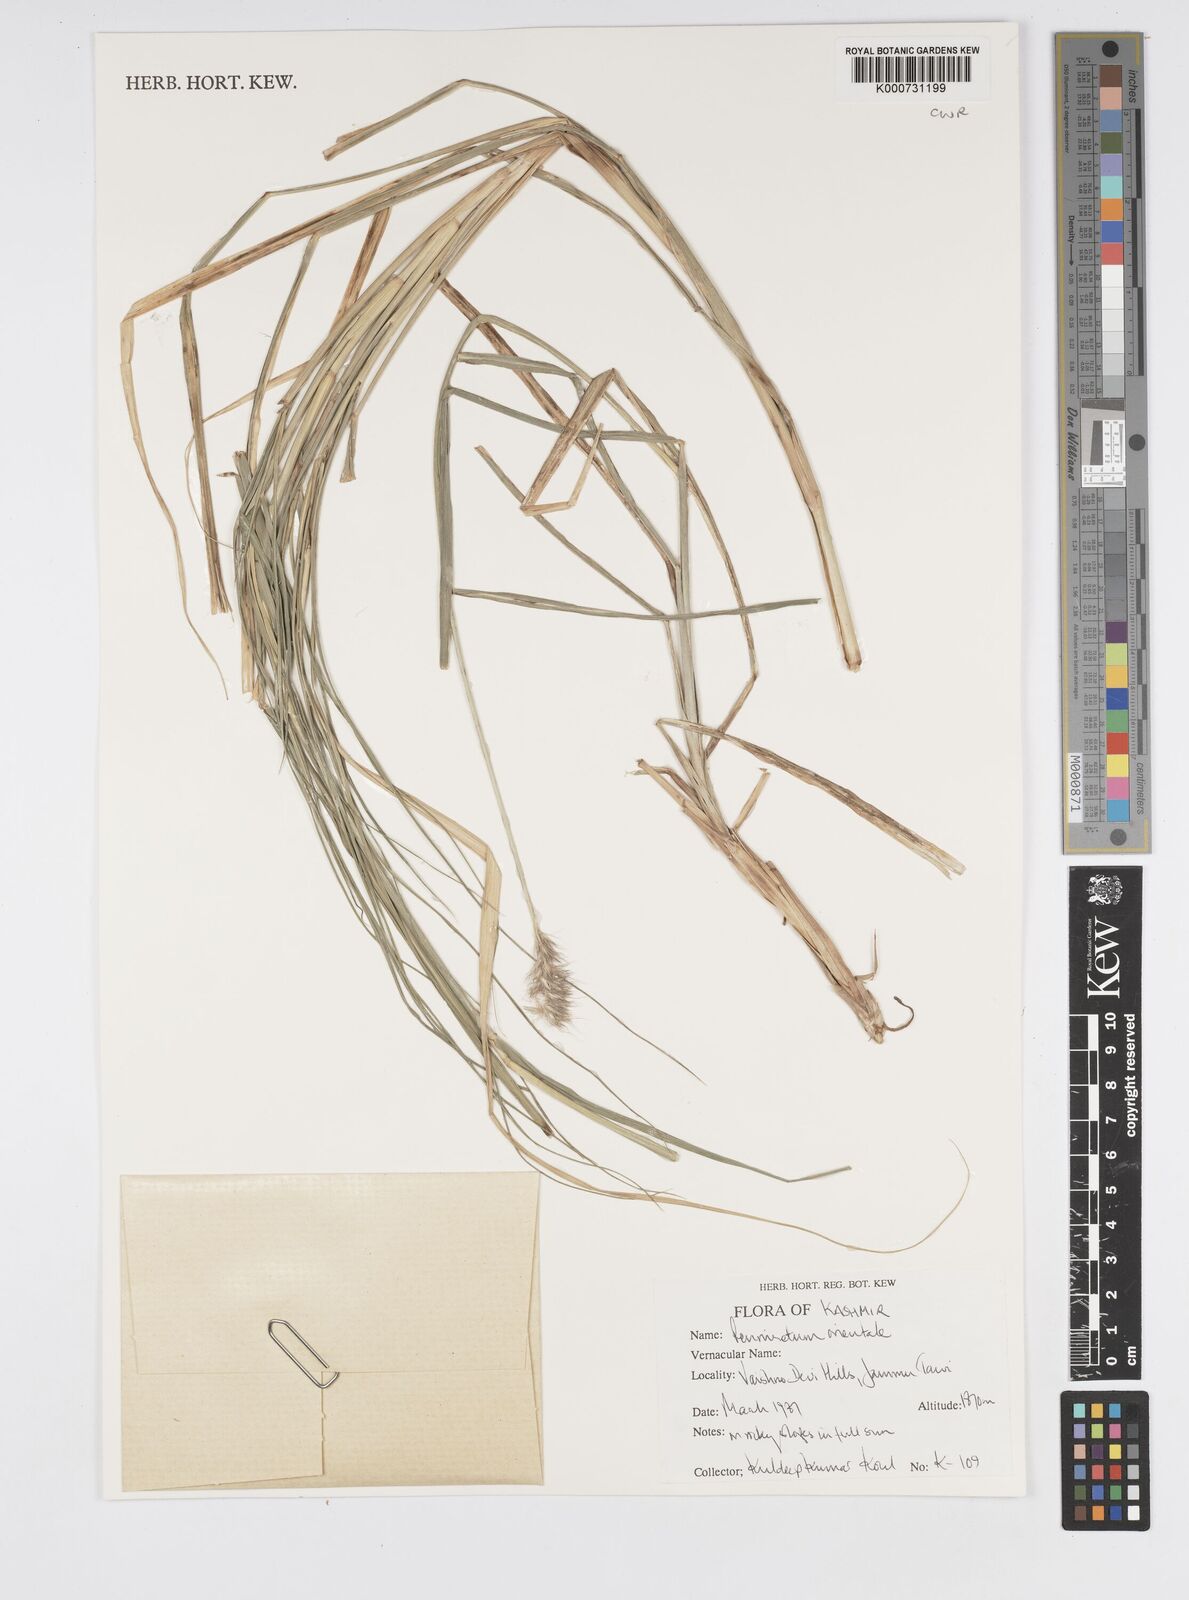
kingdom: Plantae
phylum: Tracheophyta
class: Liliopsida
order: Poales
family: Poaceae
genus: Cenchrus
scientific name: Cenchrus orientalis
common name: Oriental fountain grass
